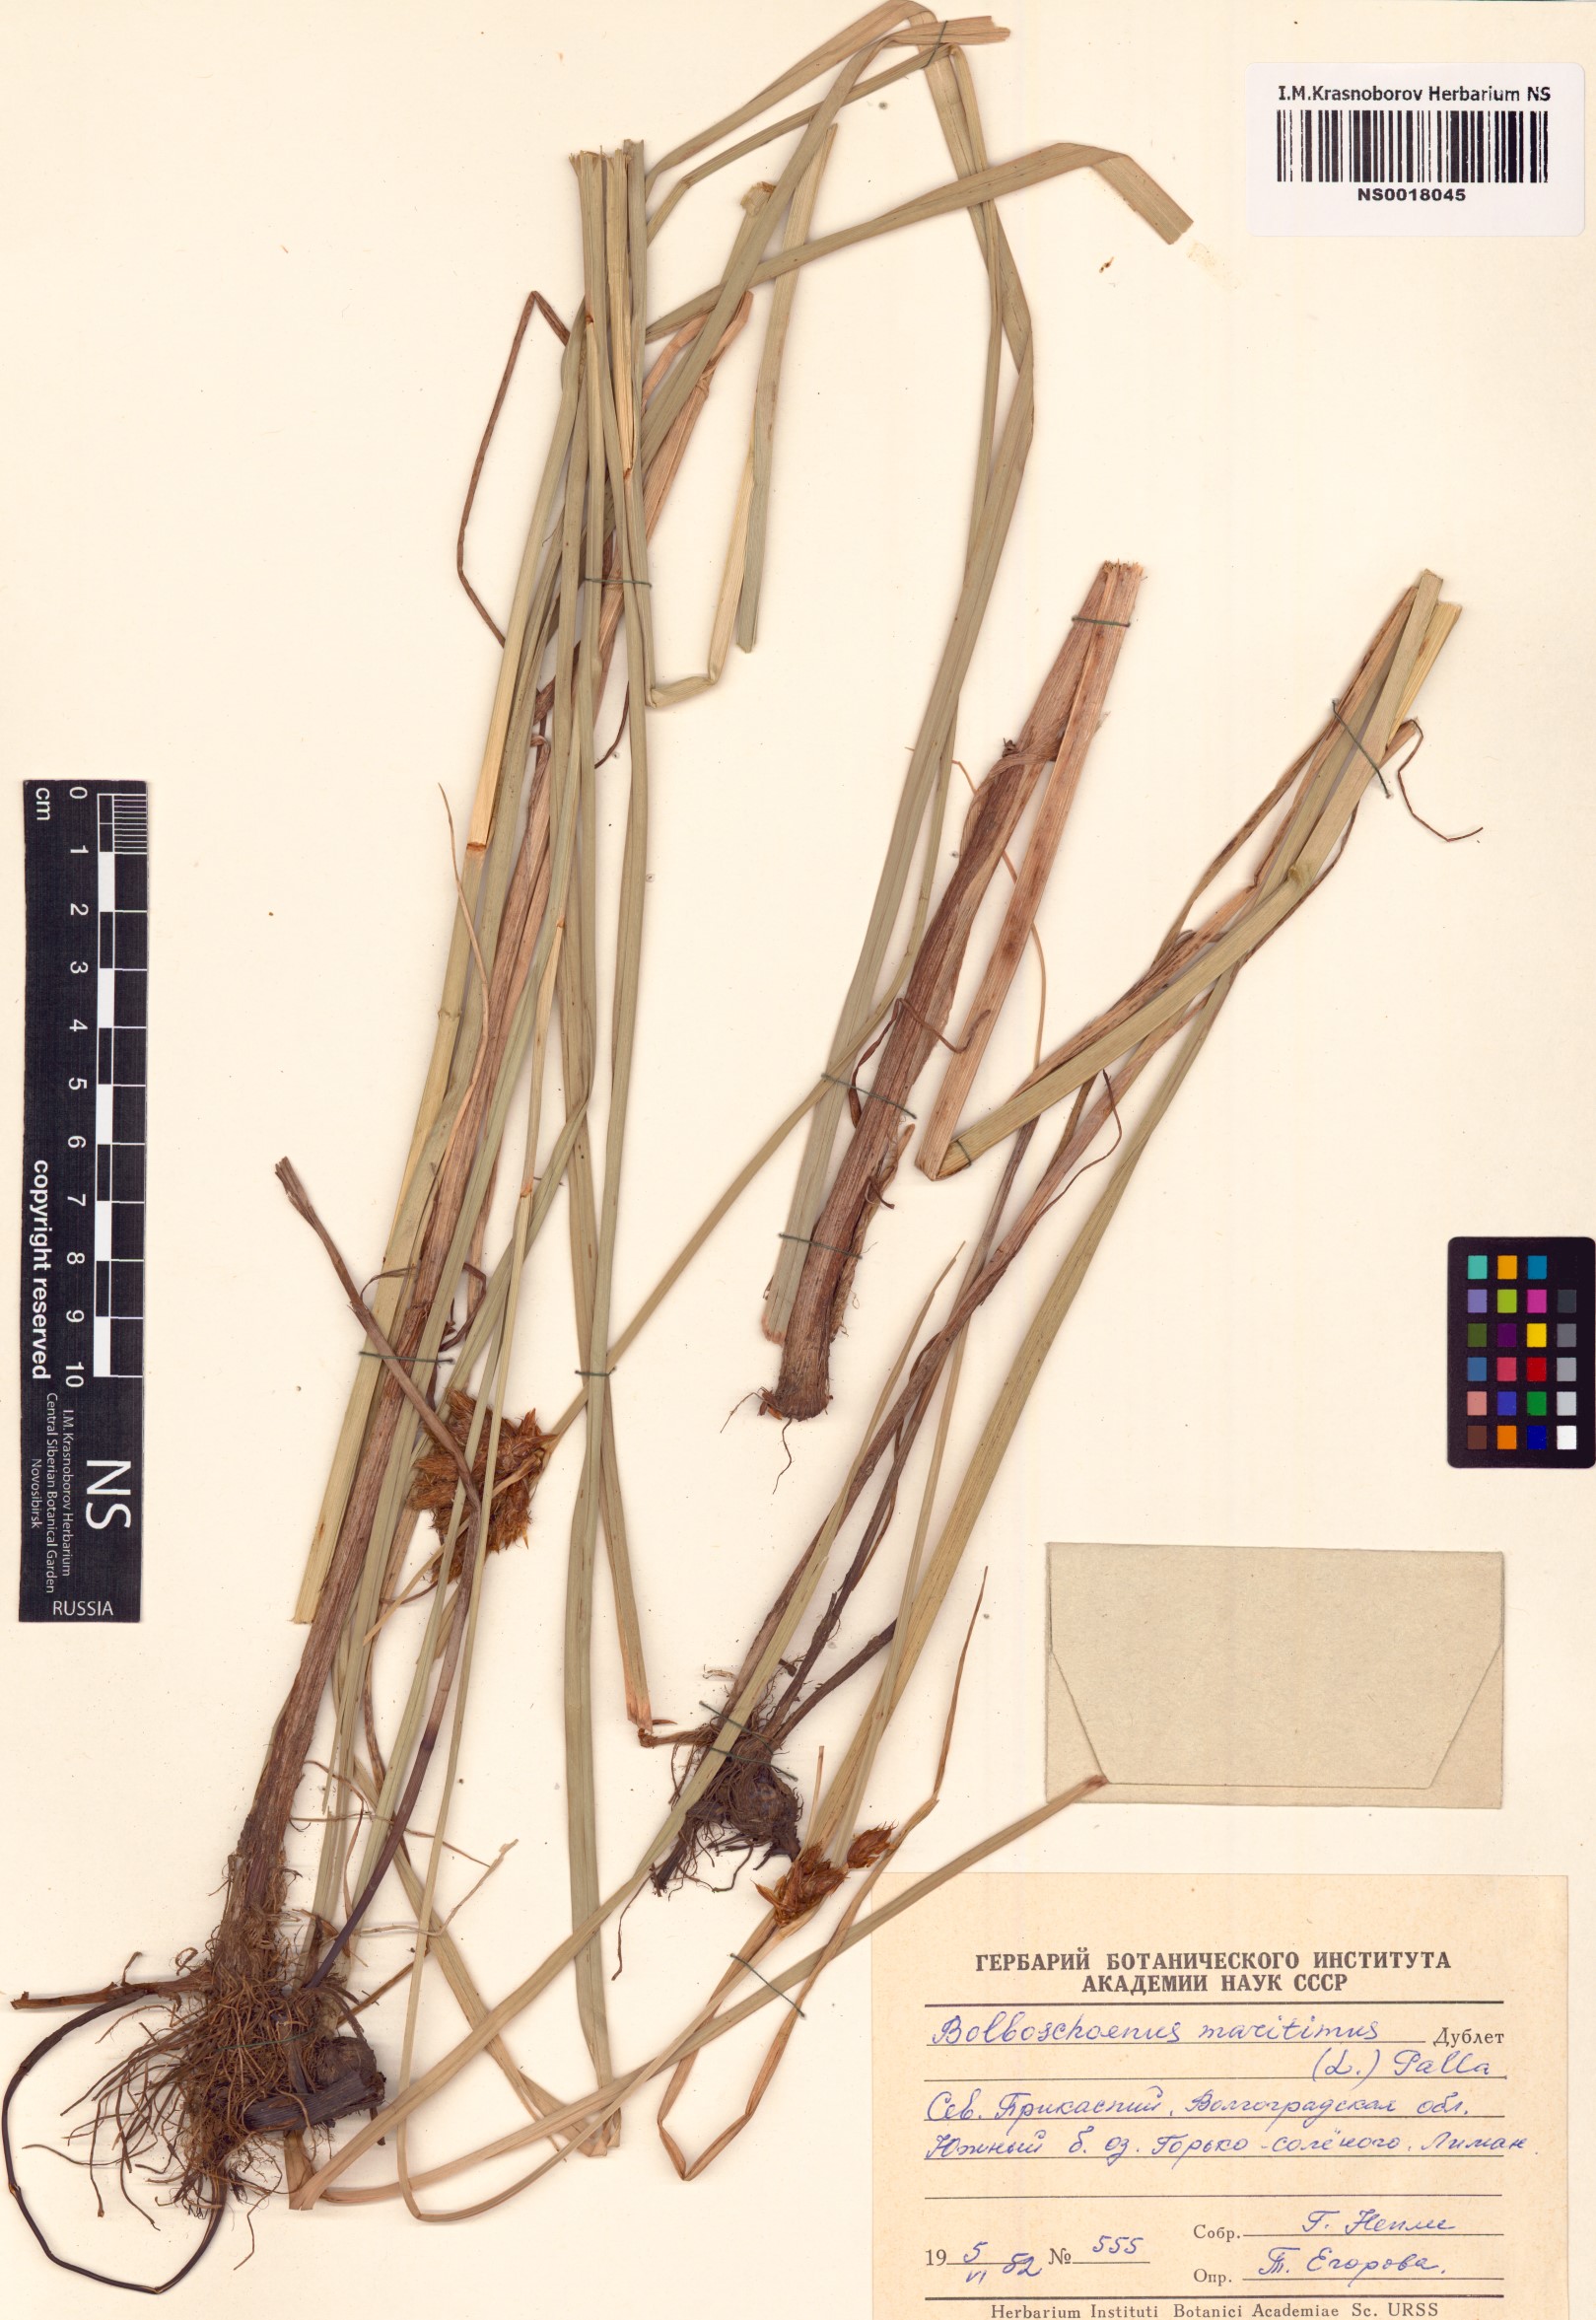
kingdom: Plantae
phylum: Tracheophyta
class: Liliopsida
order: Poales
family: Cyperaceae
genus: Bolboschoenus
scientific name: Bolboschoenus maritimus
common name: Sea club-rush
